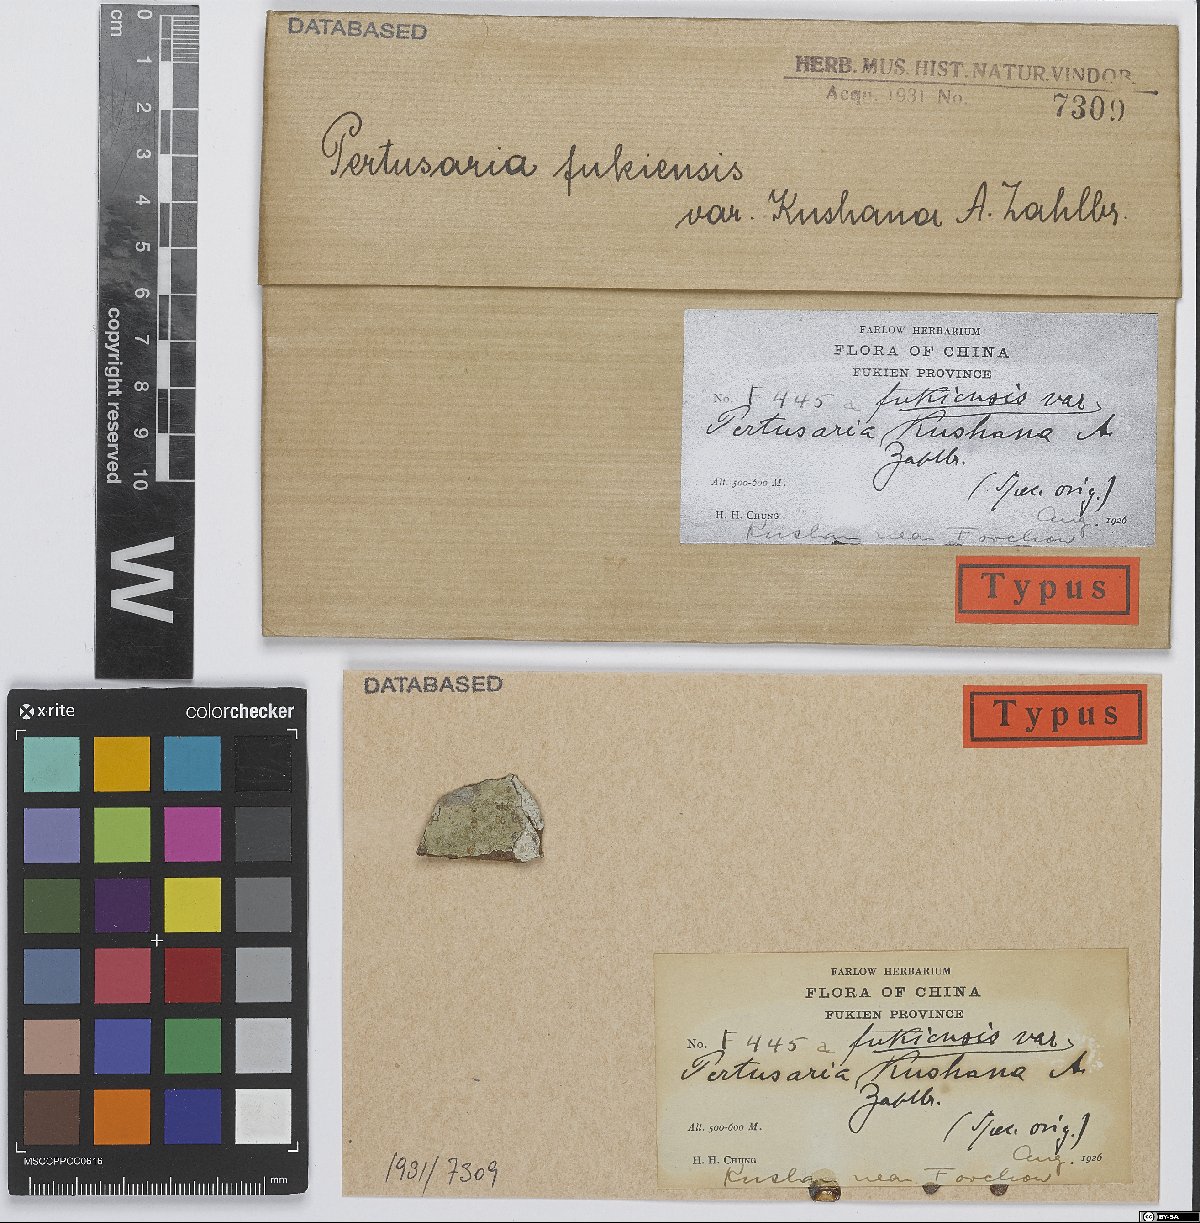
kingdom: Fungi
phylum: Ascomycota
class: Lecanoromycetes
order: Pertusariales
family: Pertusariaceae
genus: Pertusaria
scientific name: Pertusaria
